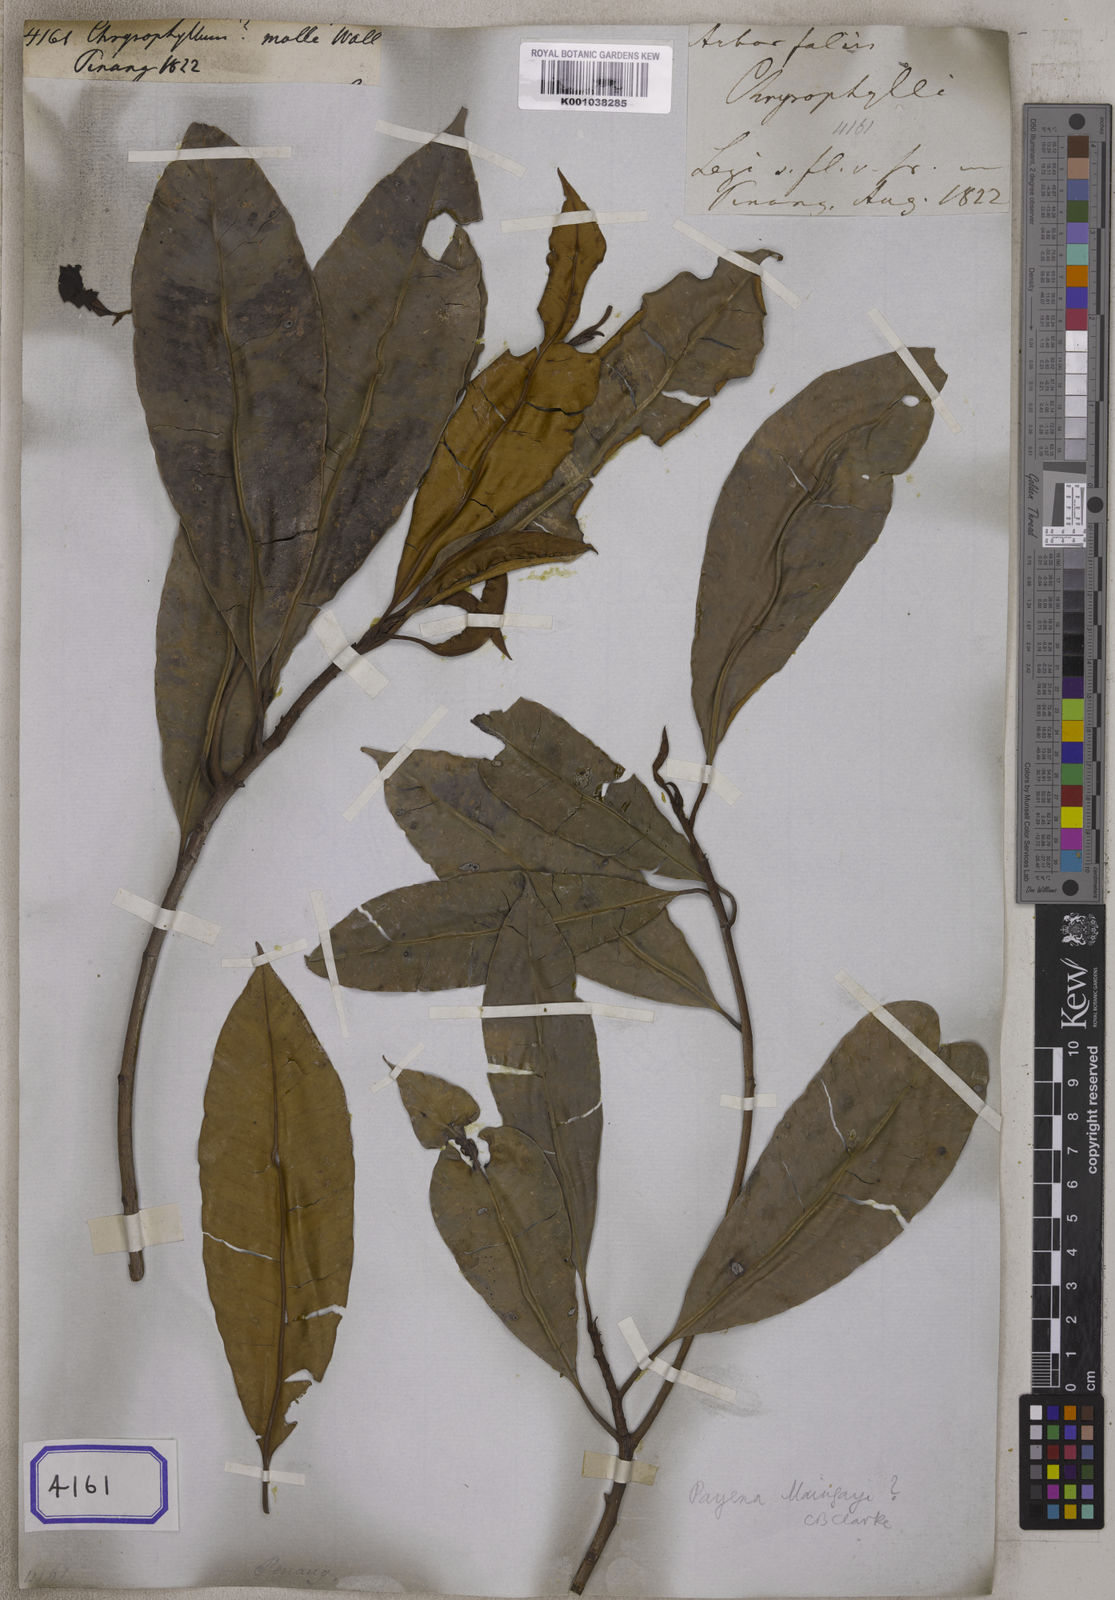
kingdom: Plantae
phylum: Tracheophyta
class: Magnoliopsida
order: Ericales
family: Sapotaceae
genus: Chrysophyllum
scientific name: Chrysophyllum
